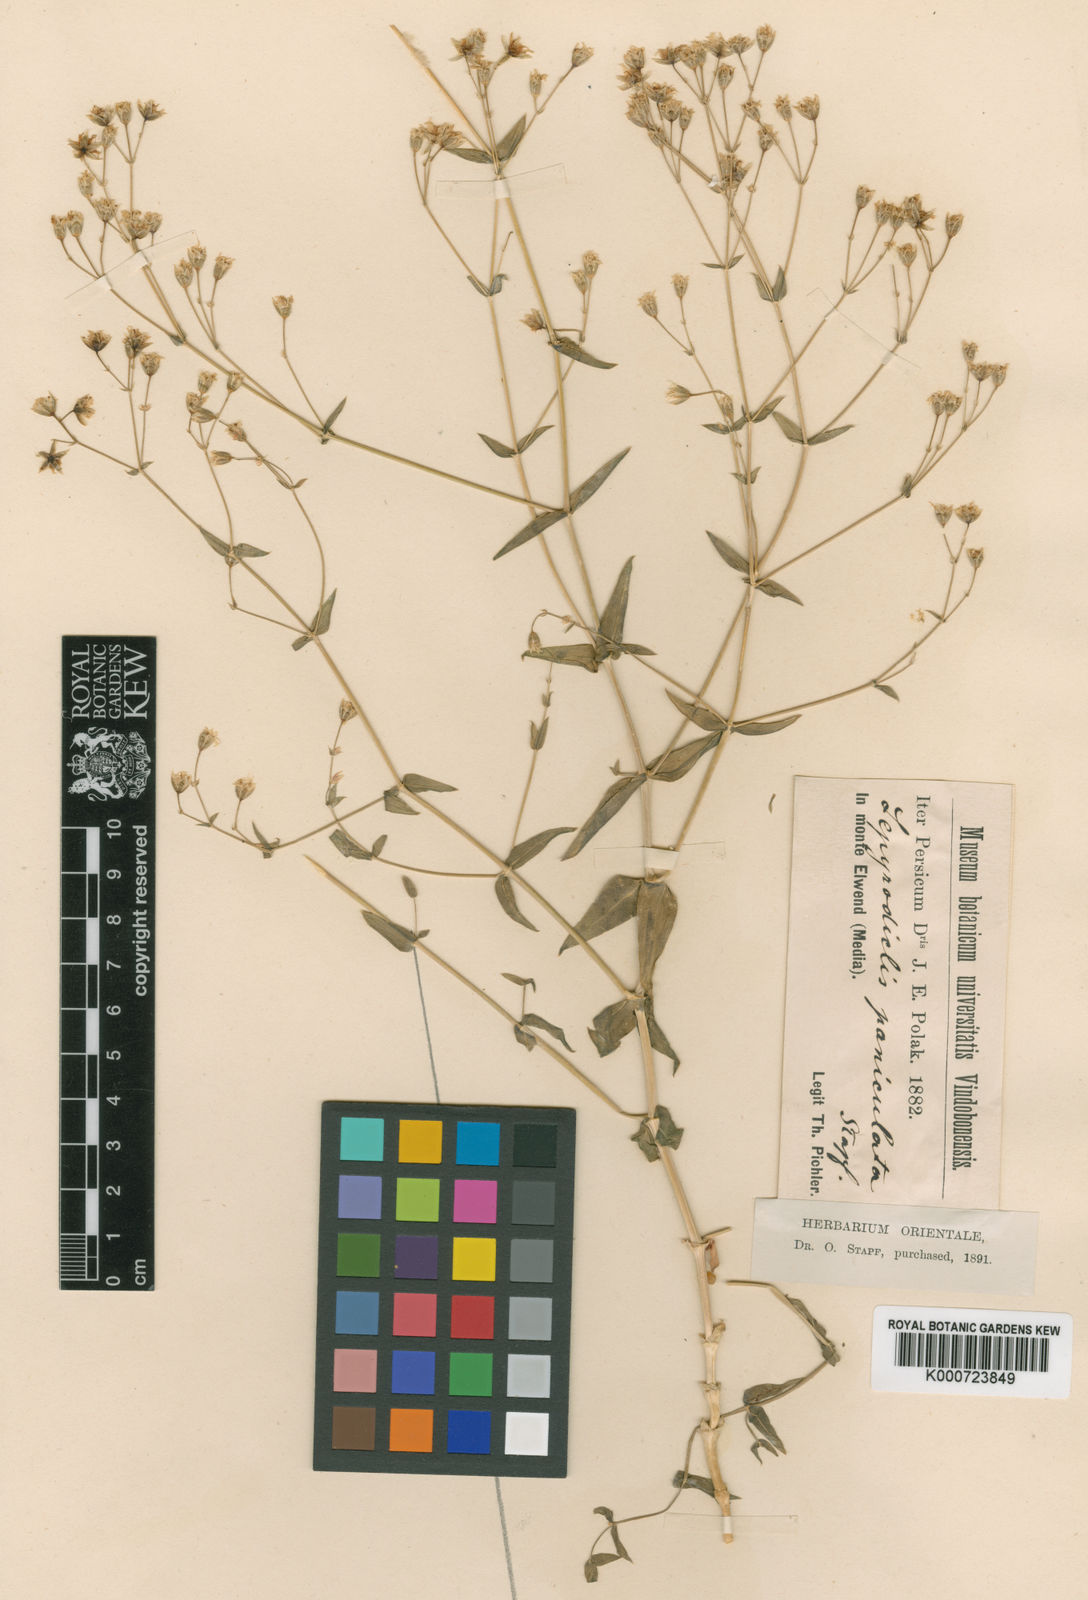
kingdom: Plantae
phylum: Tracheophyta
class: Magnoliopsida
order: Caryophyllales
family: Caryophyllaceae
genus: Mesostemma
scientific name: Mesostemma
